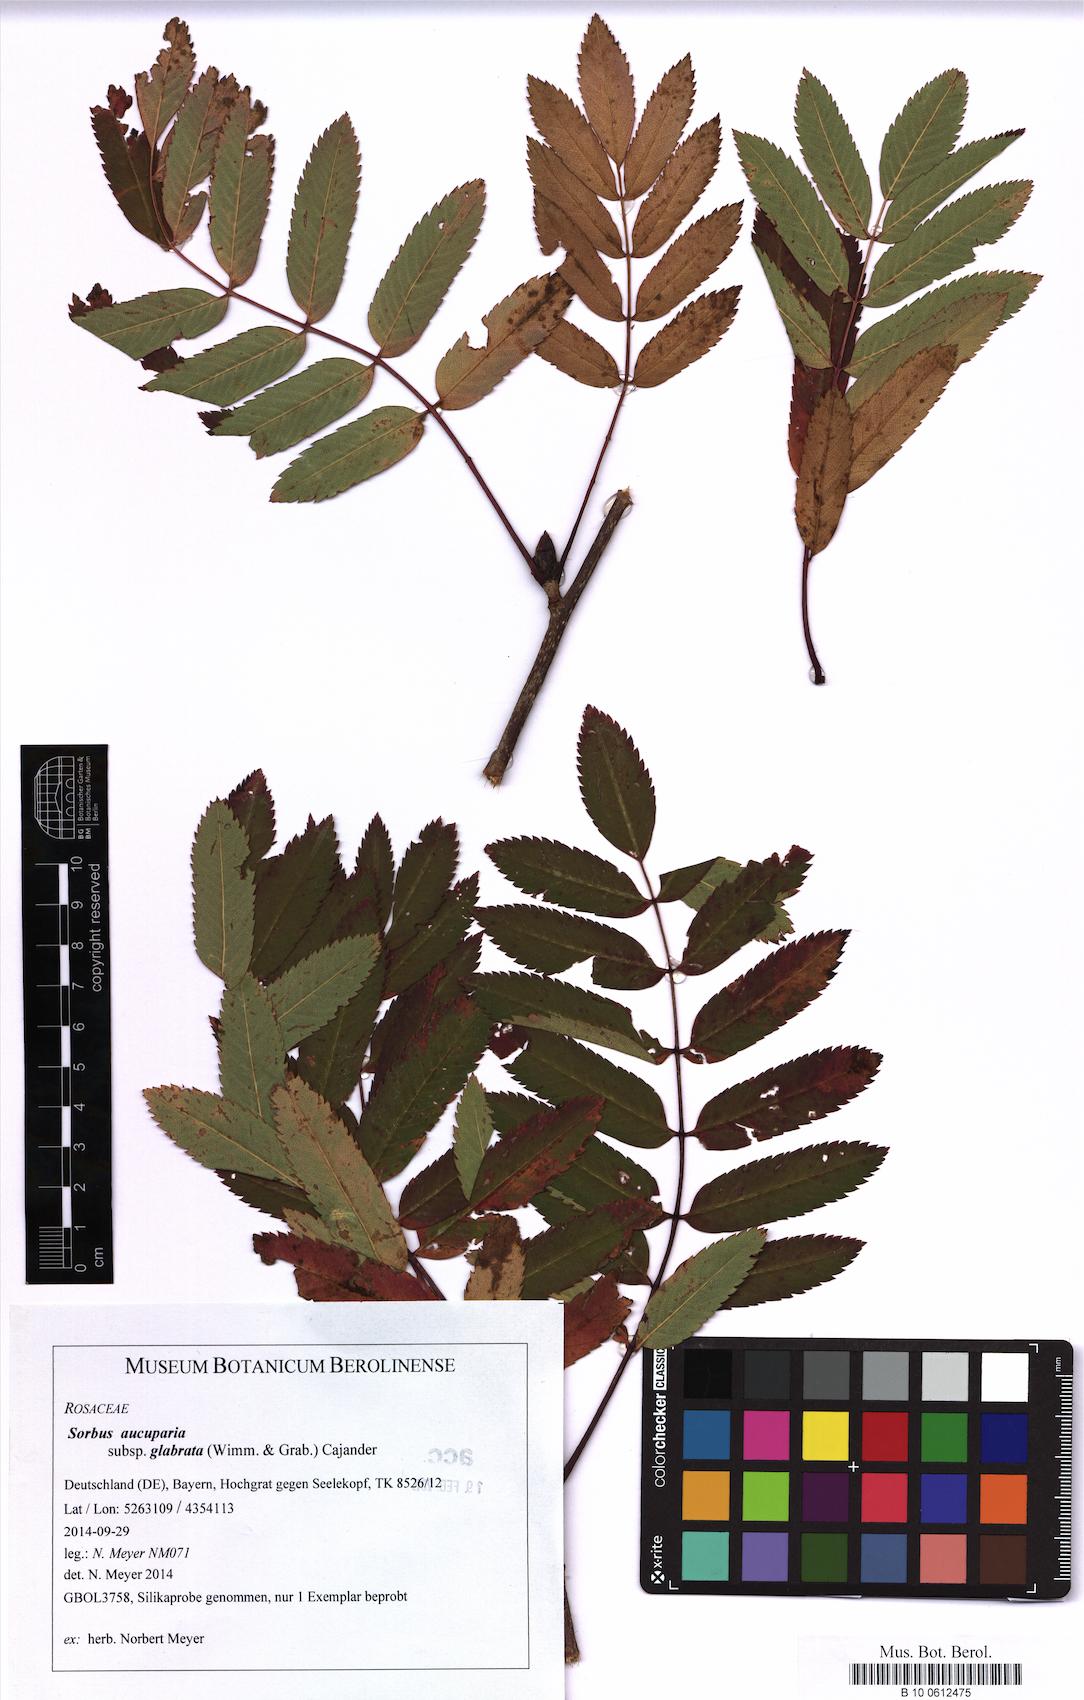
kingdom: Plantae
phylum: Tracheophyta
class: Magnoliopsida
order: Rosales
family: Rosaceae
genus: Sorbus
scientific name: Sorbus aucuparia
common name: Rowan
